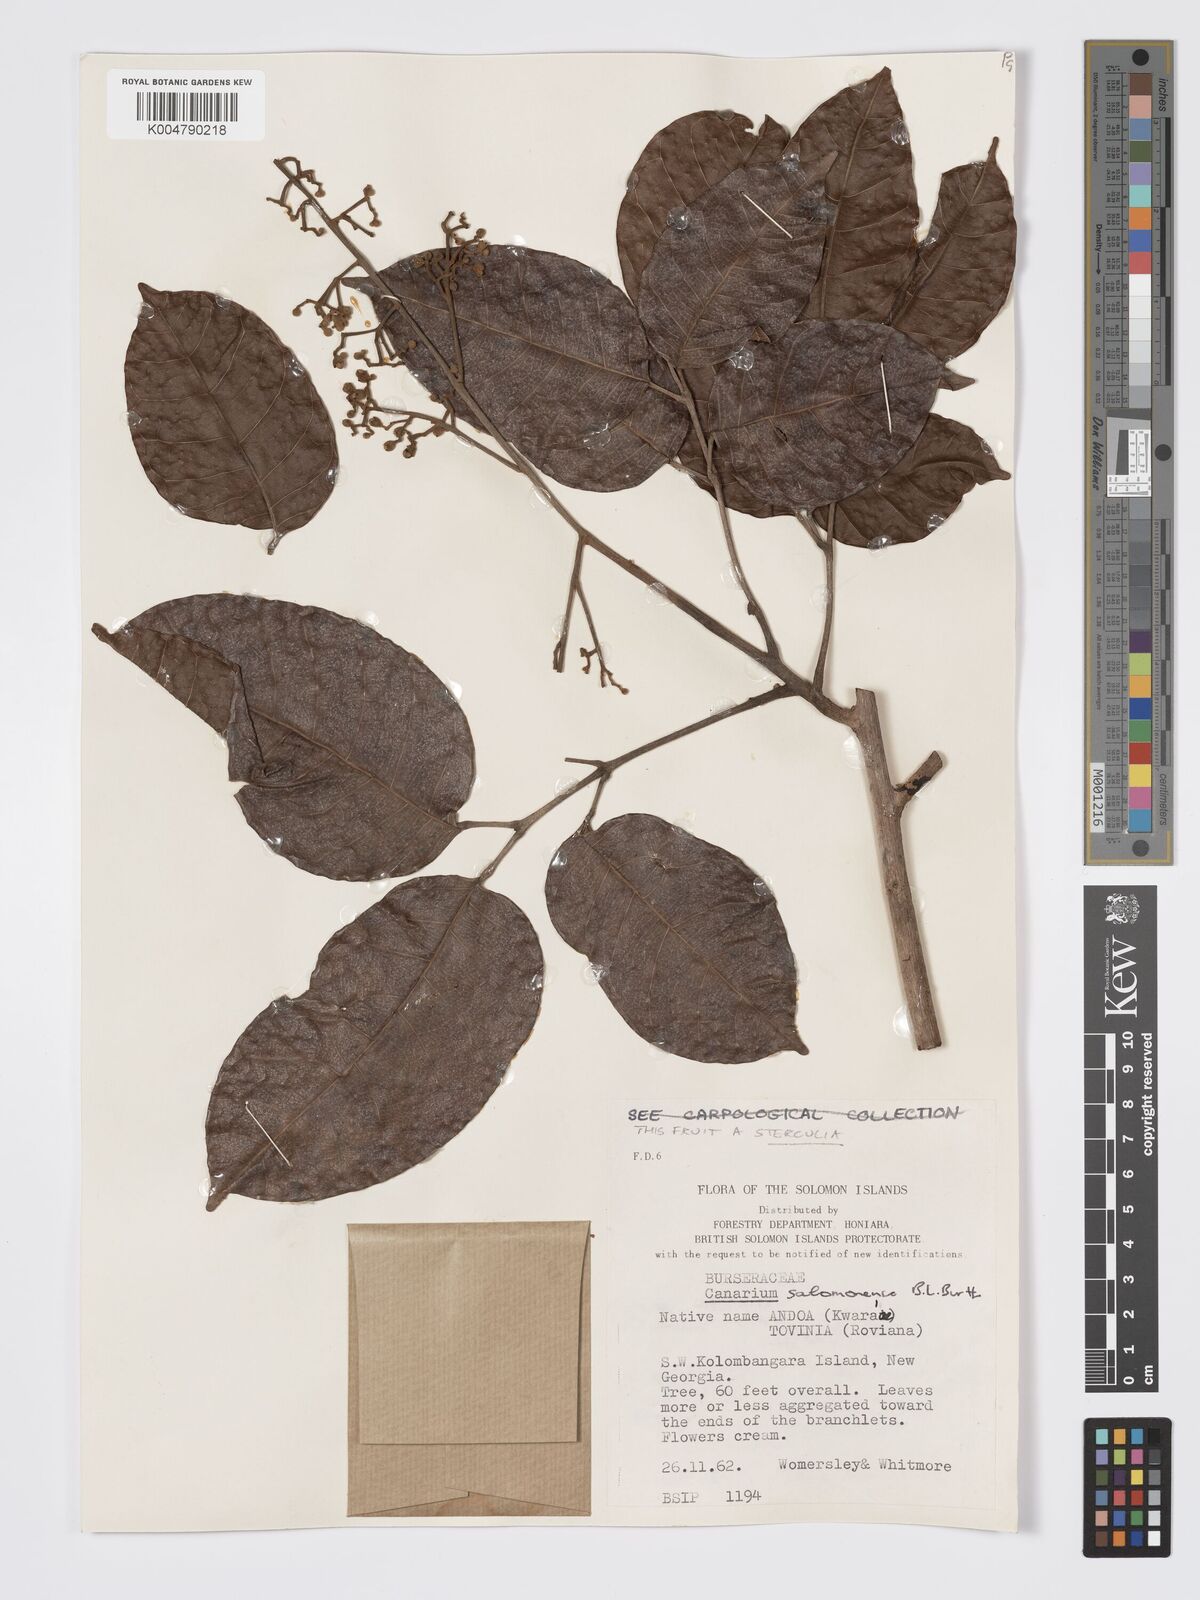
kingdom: Plantae
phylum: Tracheophyta
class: Magnoliopsida
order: Sapindales
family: Burseraceae
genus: Canarium
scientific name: Canarium salomonense
